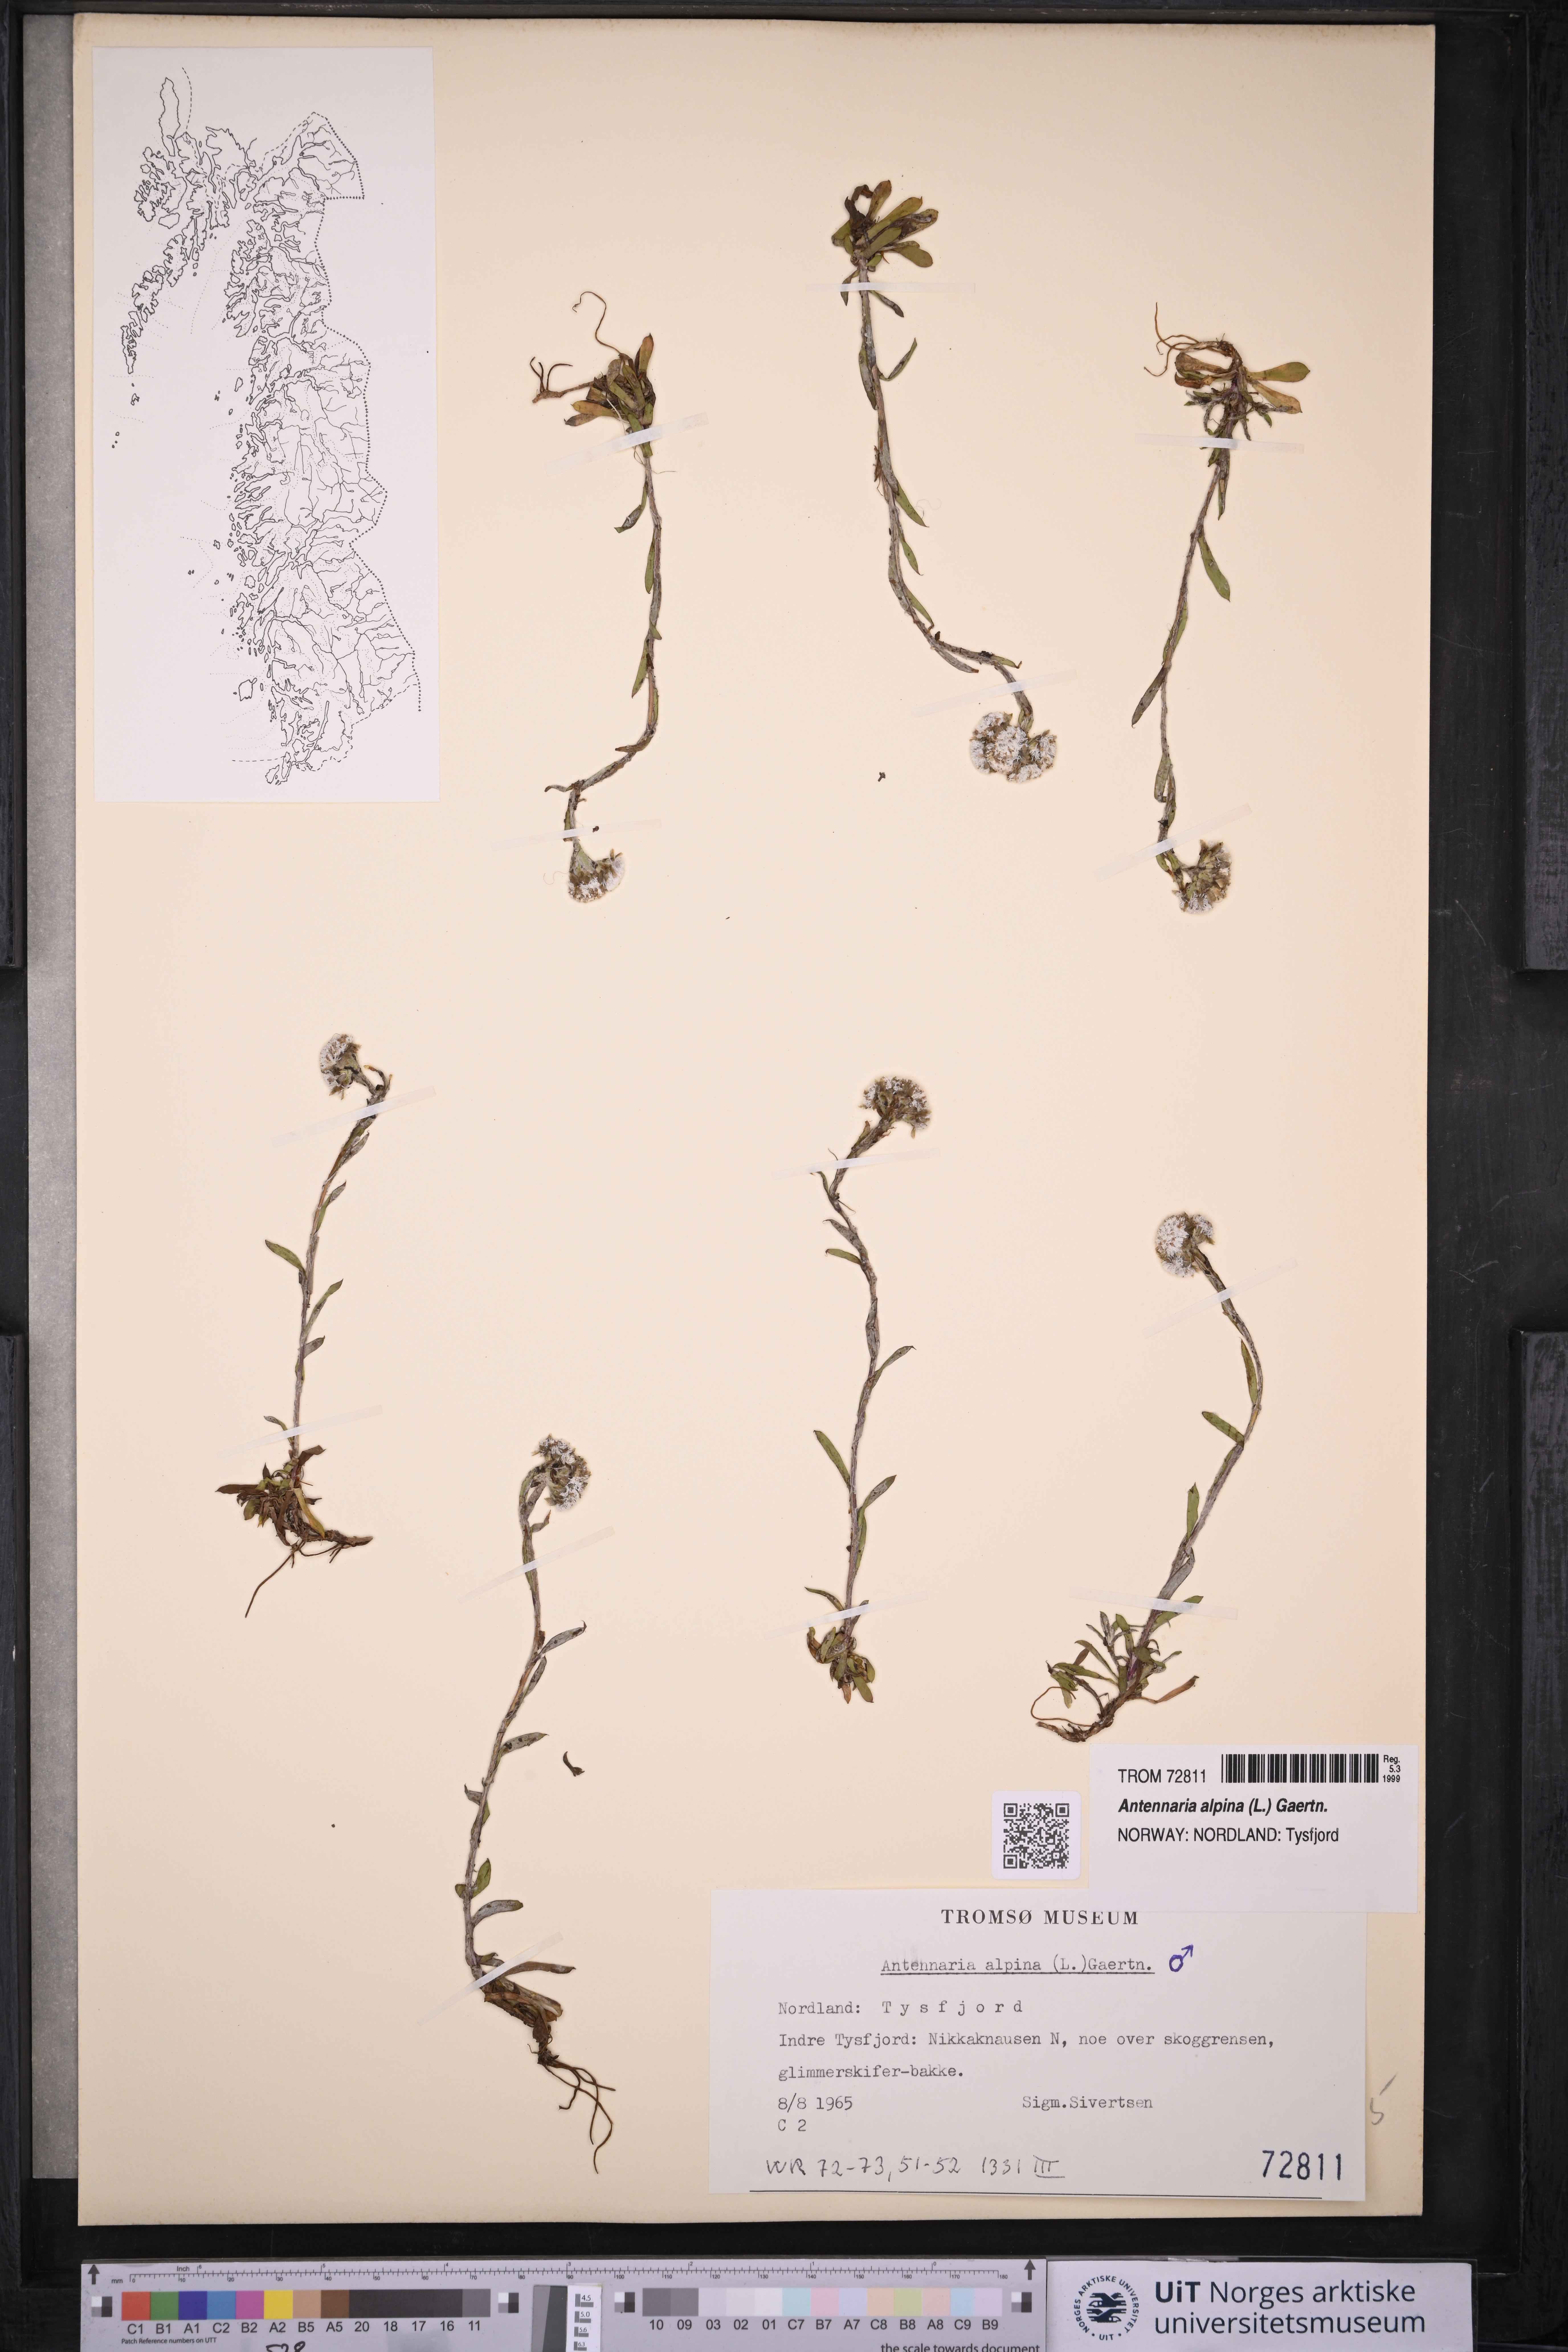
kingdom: Plantae
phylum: Tracheophyta
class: Magnoliopsida
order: Asterales
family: Asteraceae
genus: Antennaria
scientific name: Antennaria alpina
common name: Alpine pussytoes
